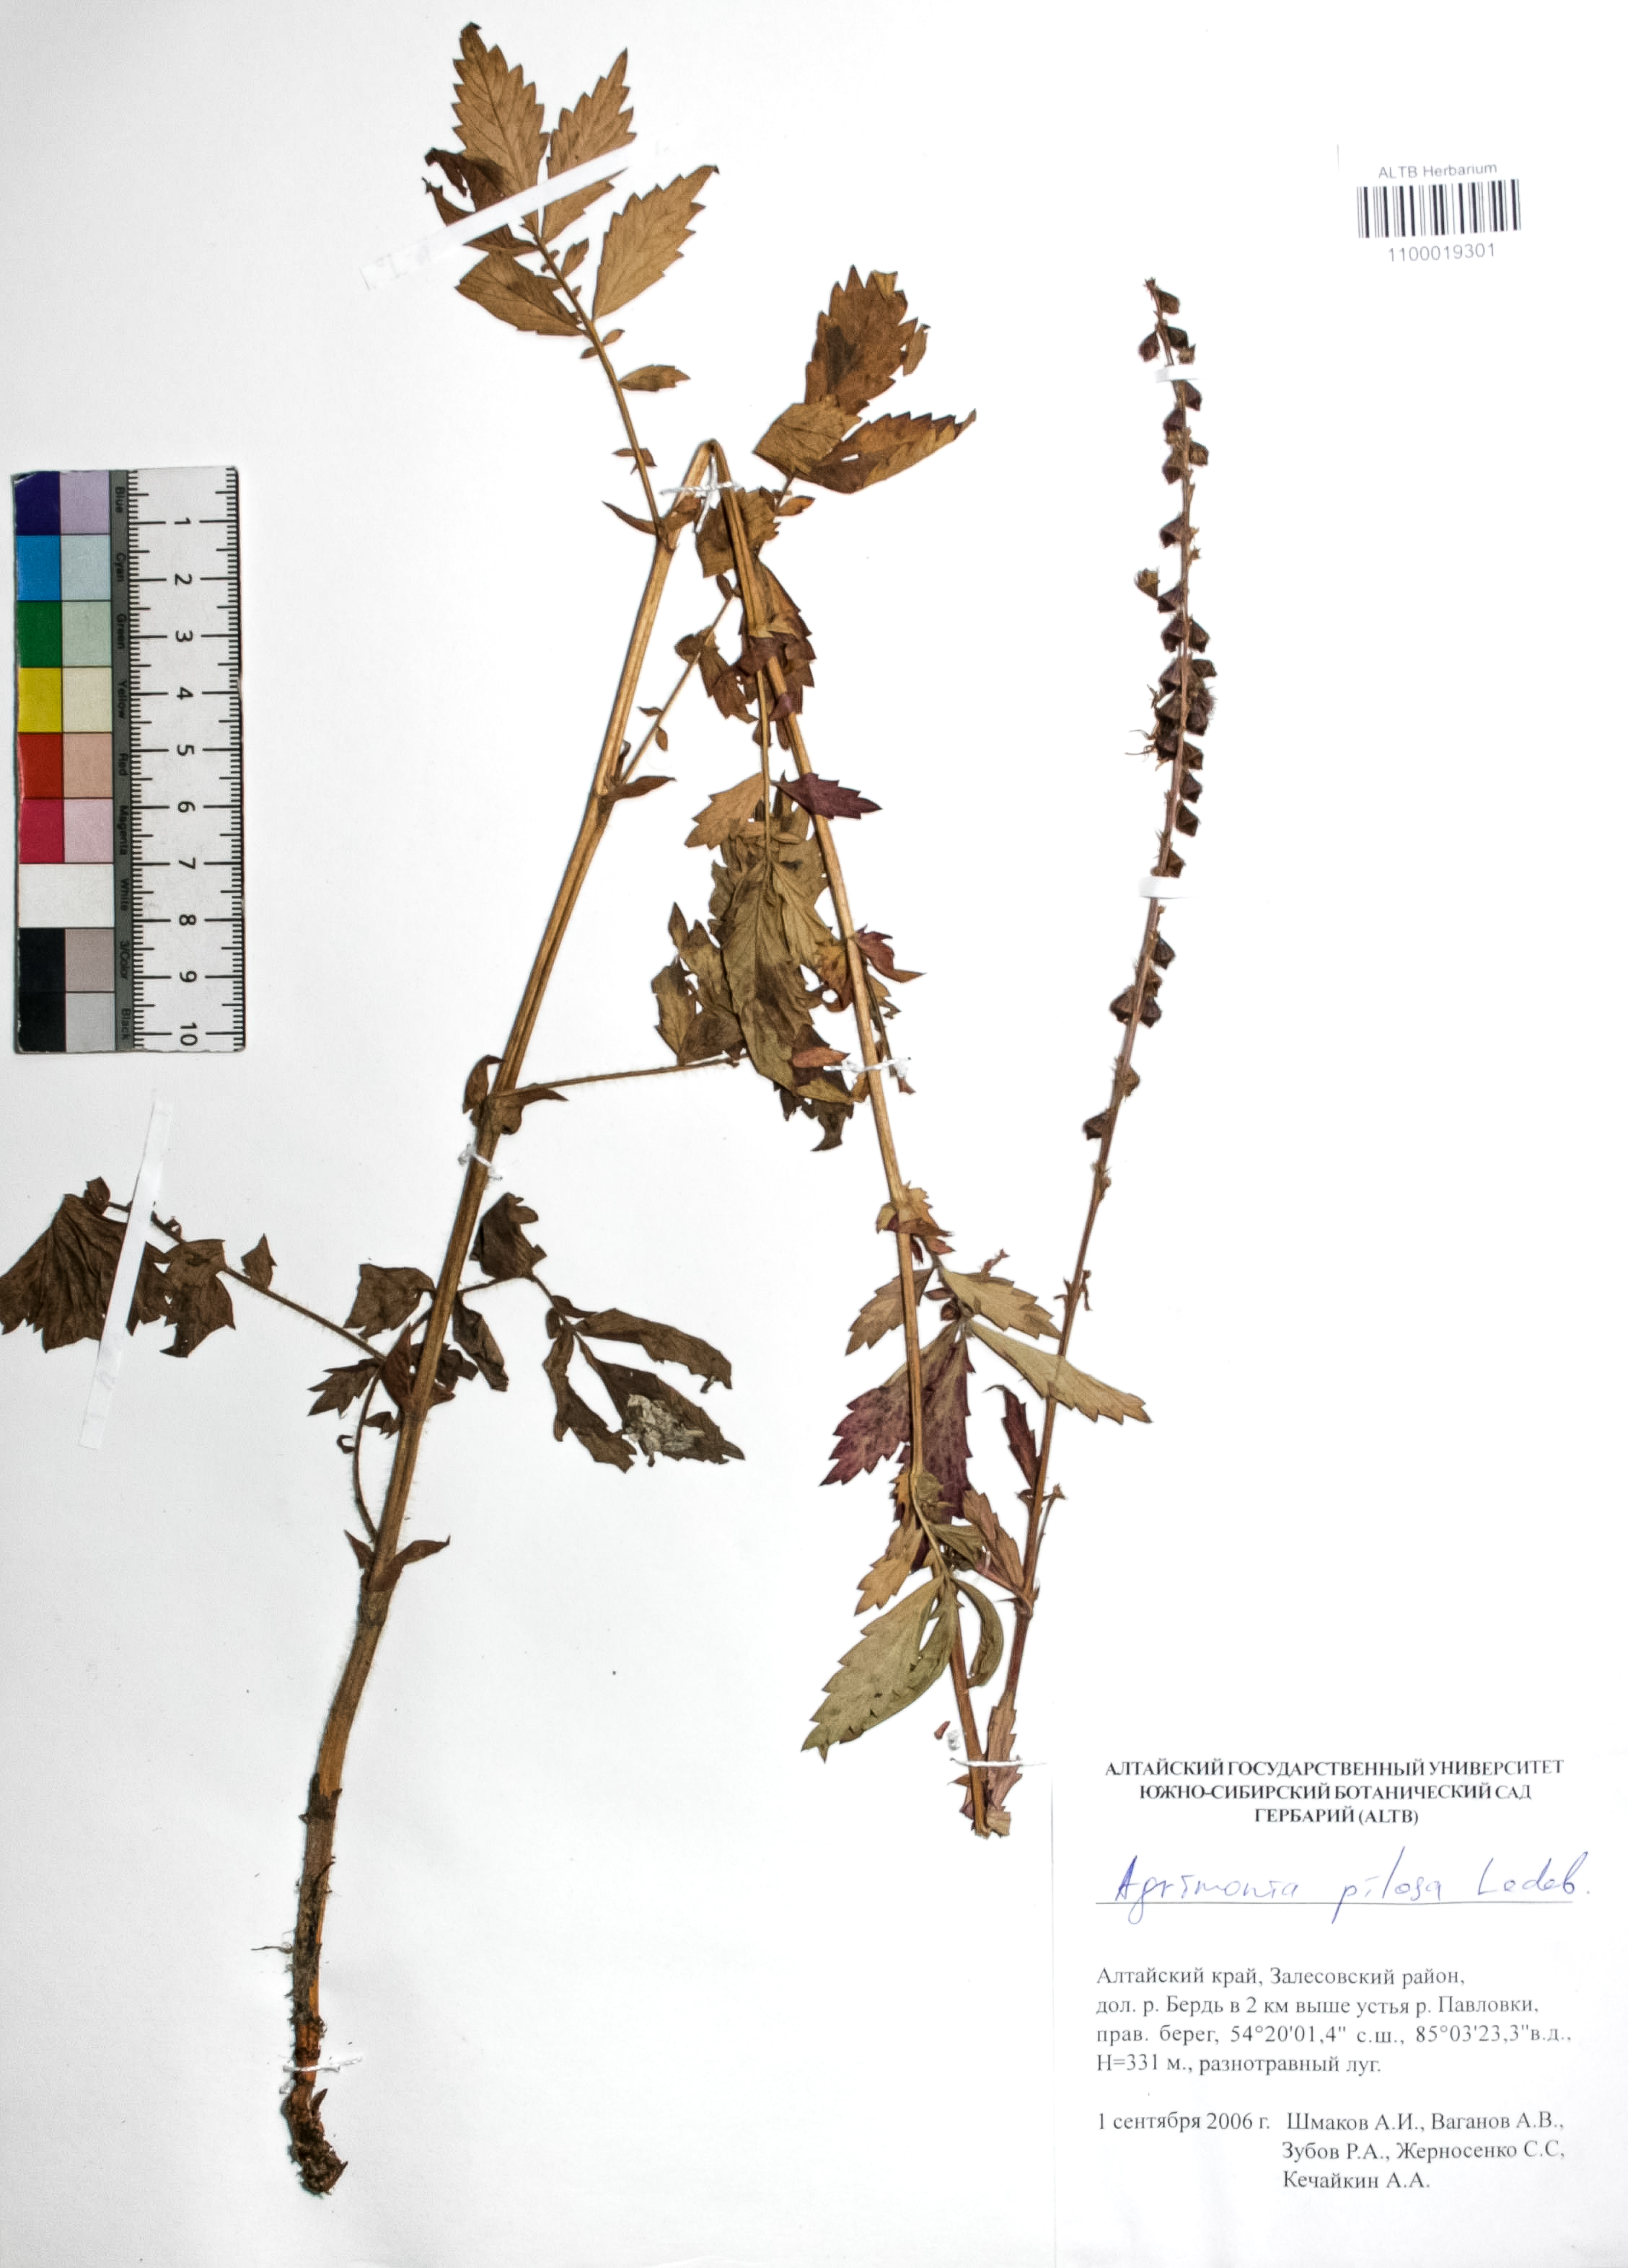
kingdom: Plantae
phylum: Tracheophyta
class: Magnoliopsida
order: Rosales
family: Rosaceae
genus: Agrimonia
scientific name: Agrimonia pilosa
